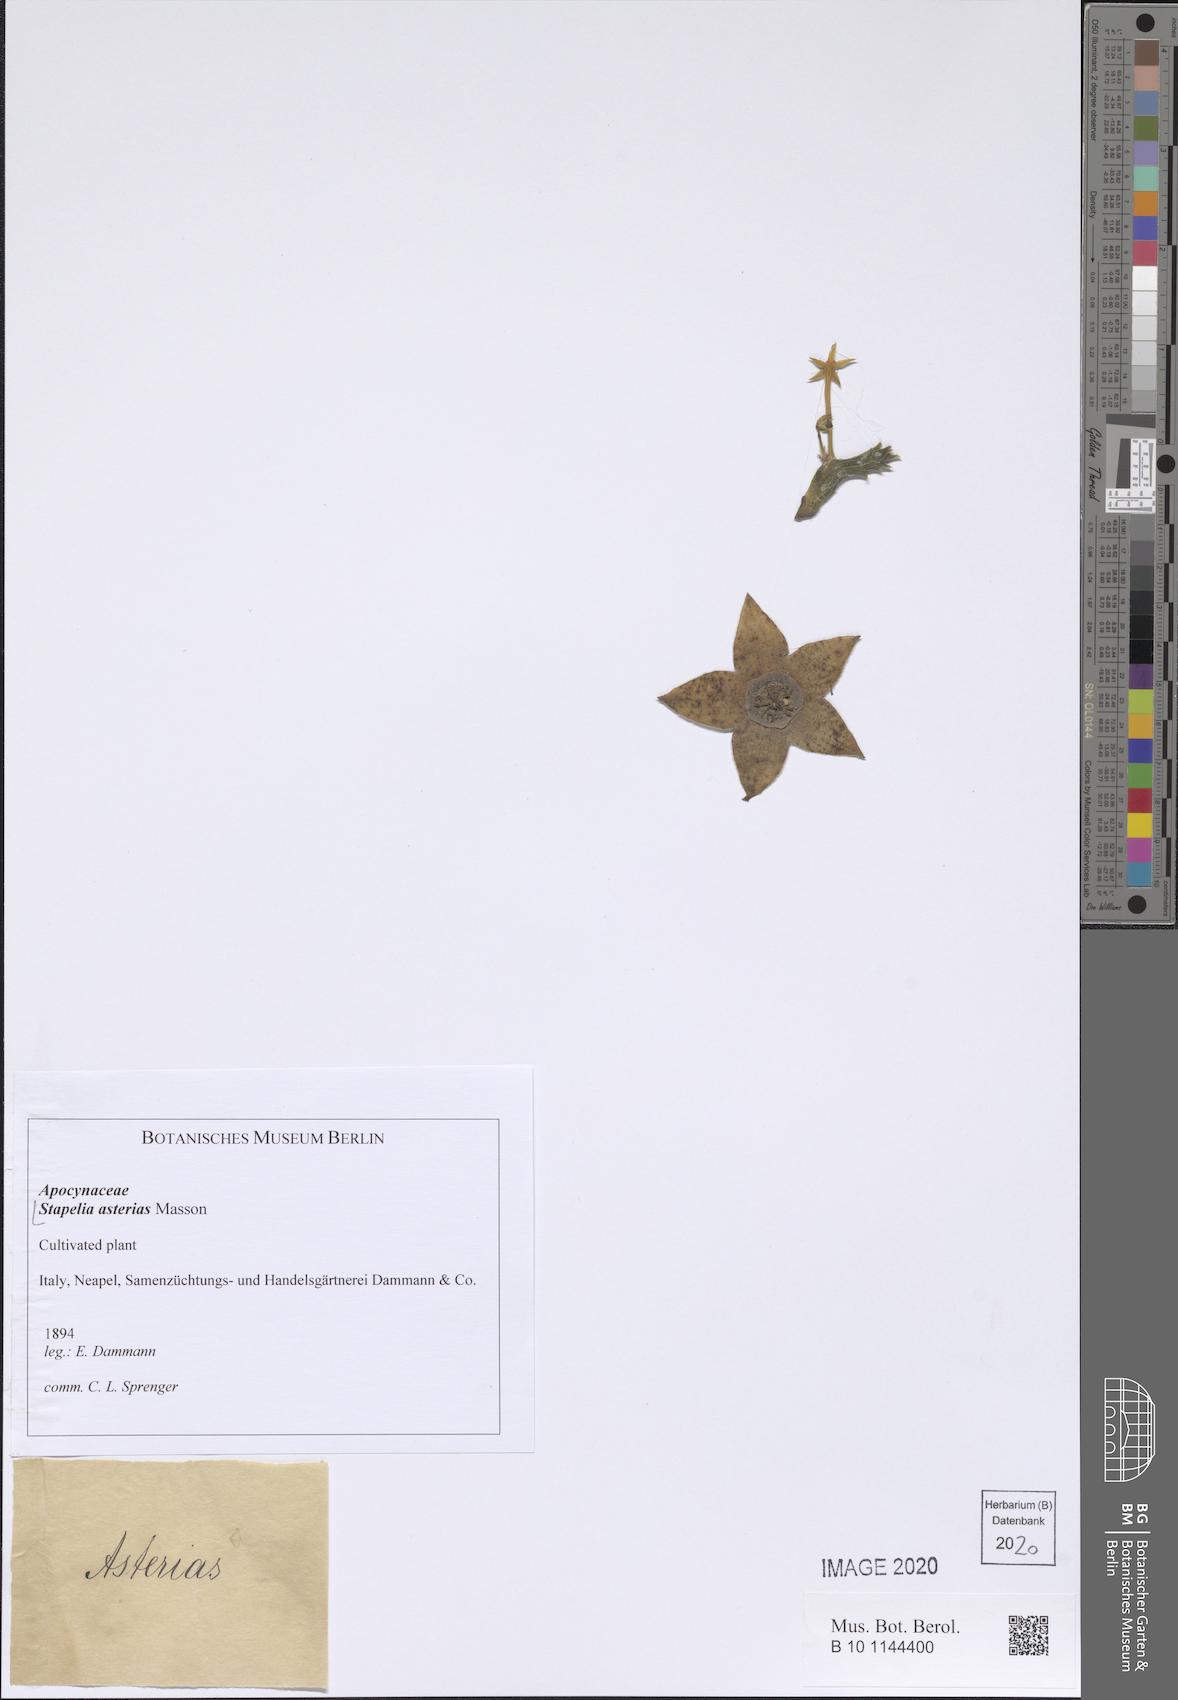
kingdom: Plantae
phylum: Tracheophyta
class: Magnoliopsida
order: Gentianales
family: Apocynaceae
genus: Ceropegia
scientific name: Ceropegia pulvinata
